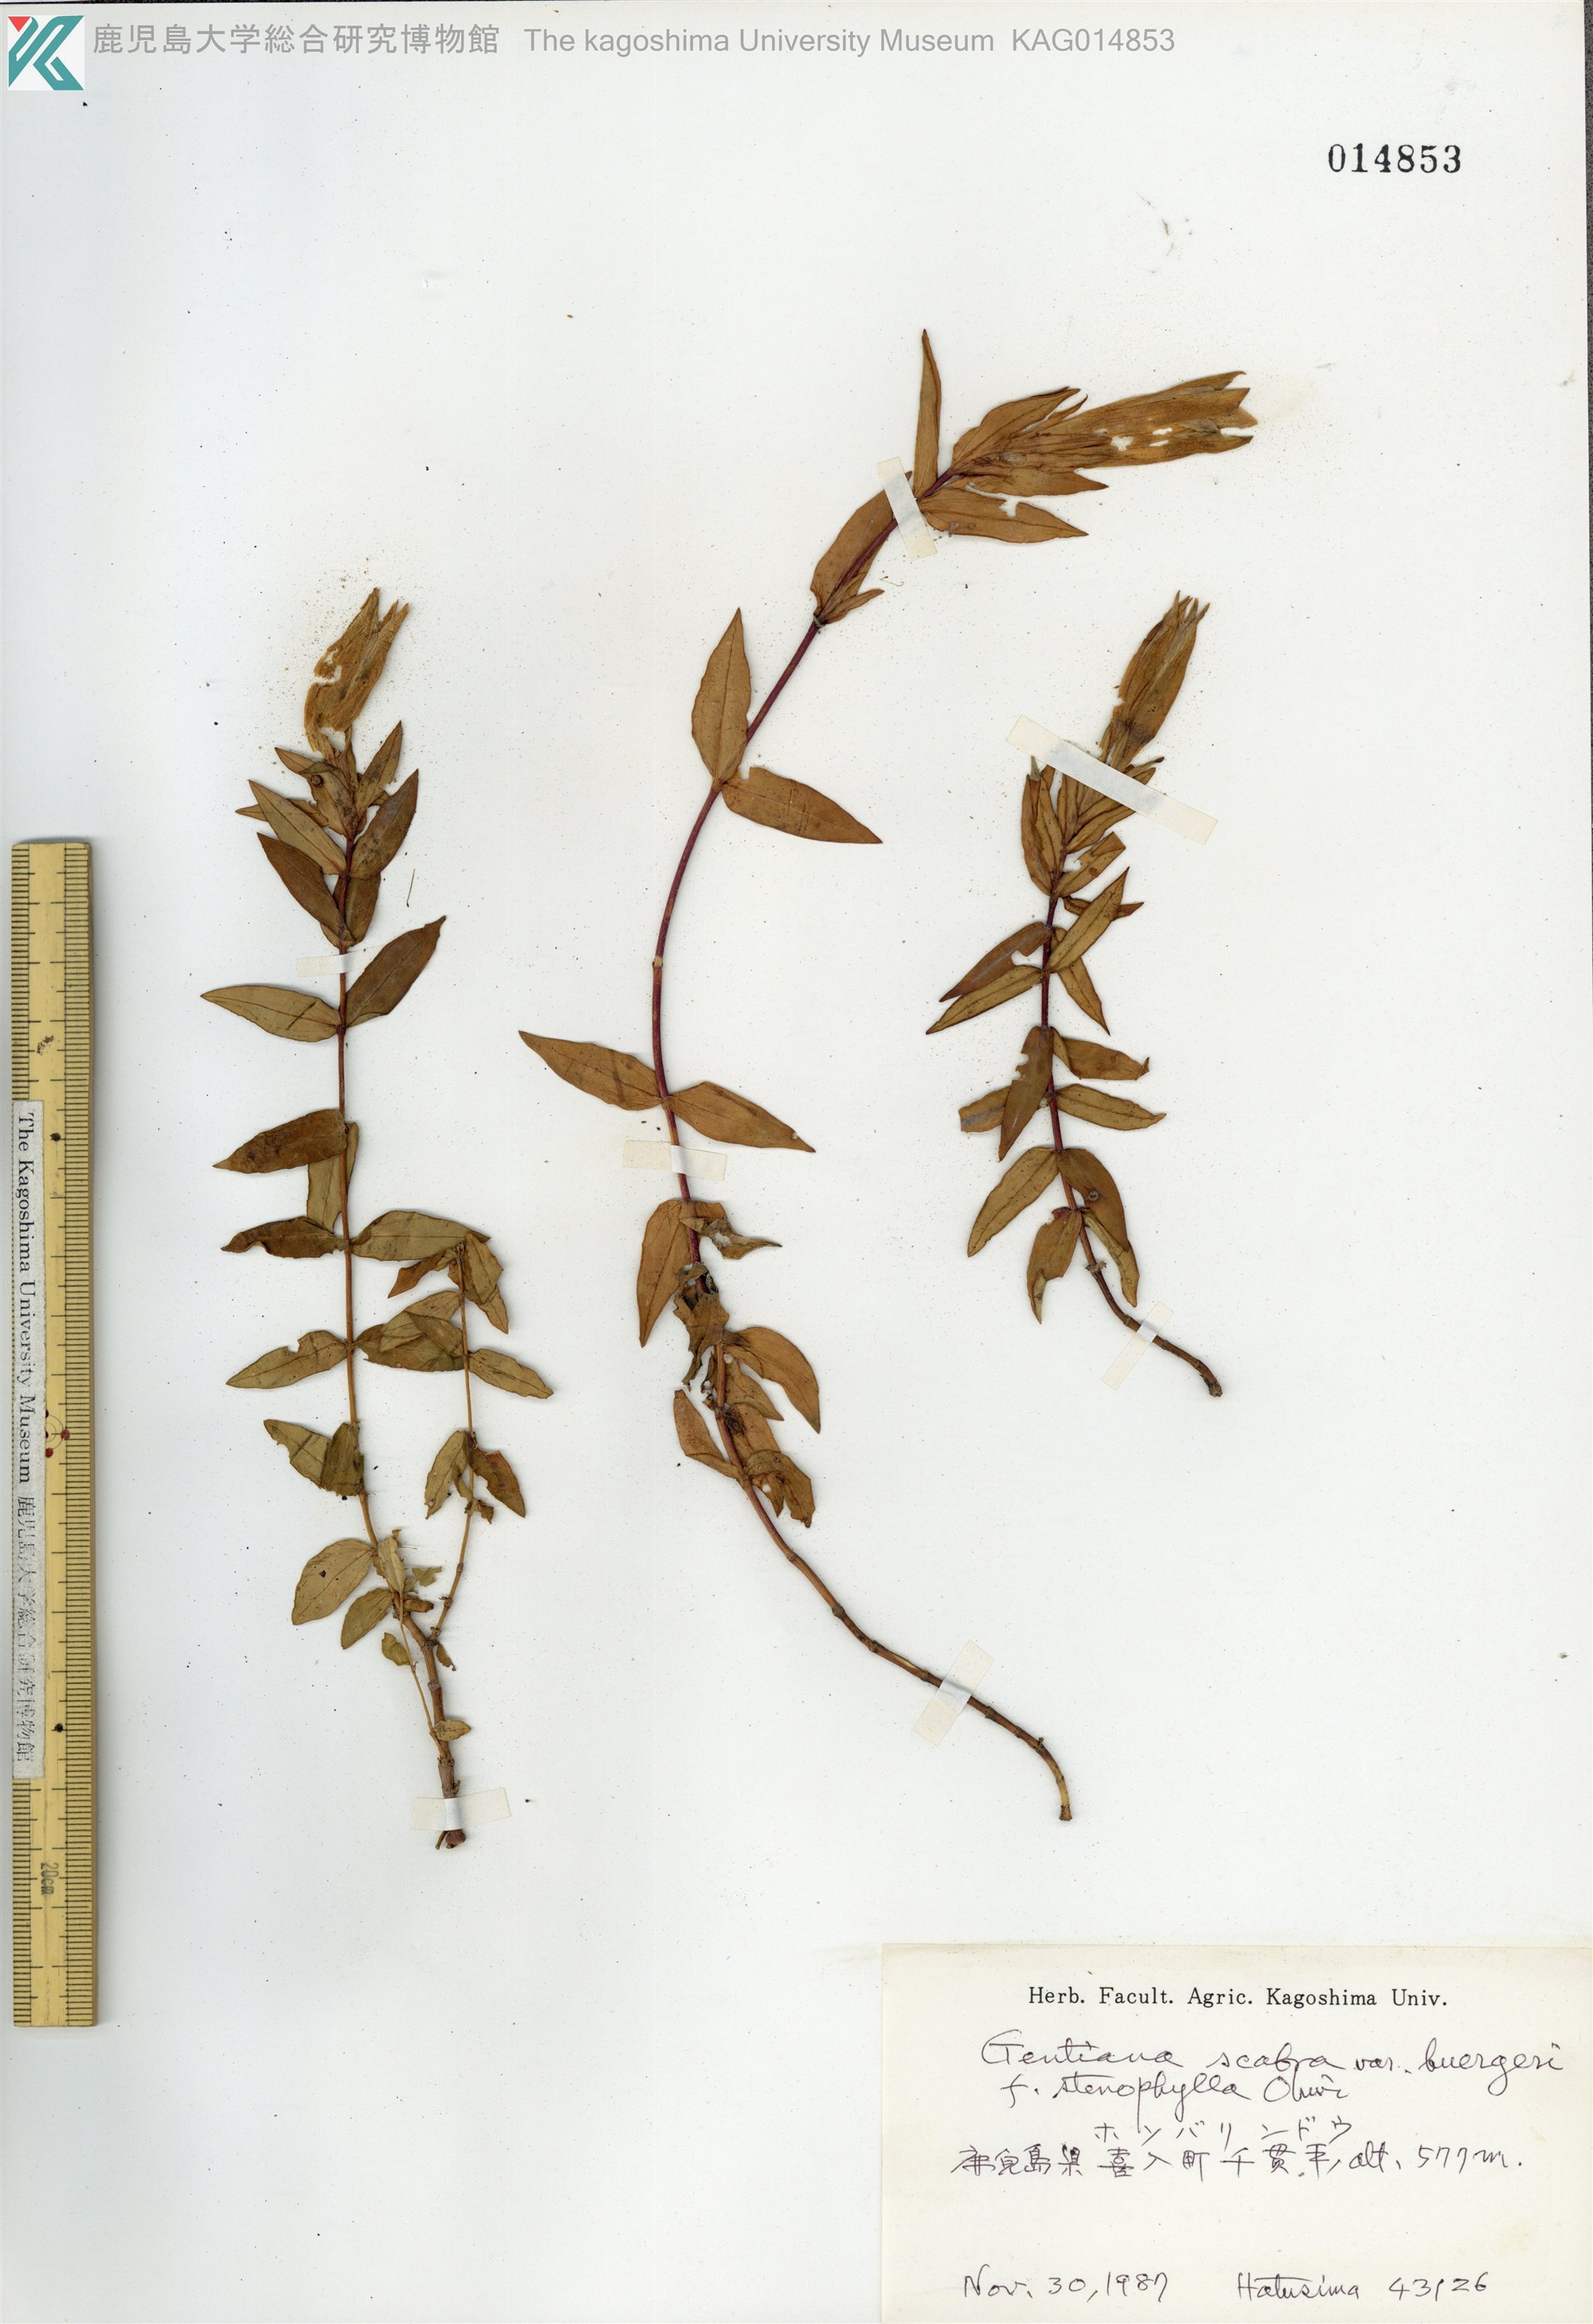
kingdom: Plantae
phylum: Tracheophyta
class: Magnoliopsida
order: Gentianales
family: Gentianaceae
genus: Gentiana
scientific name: Gentiana scabra
